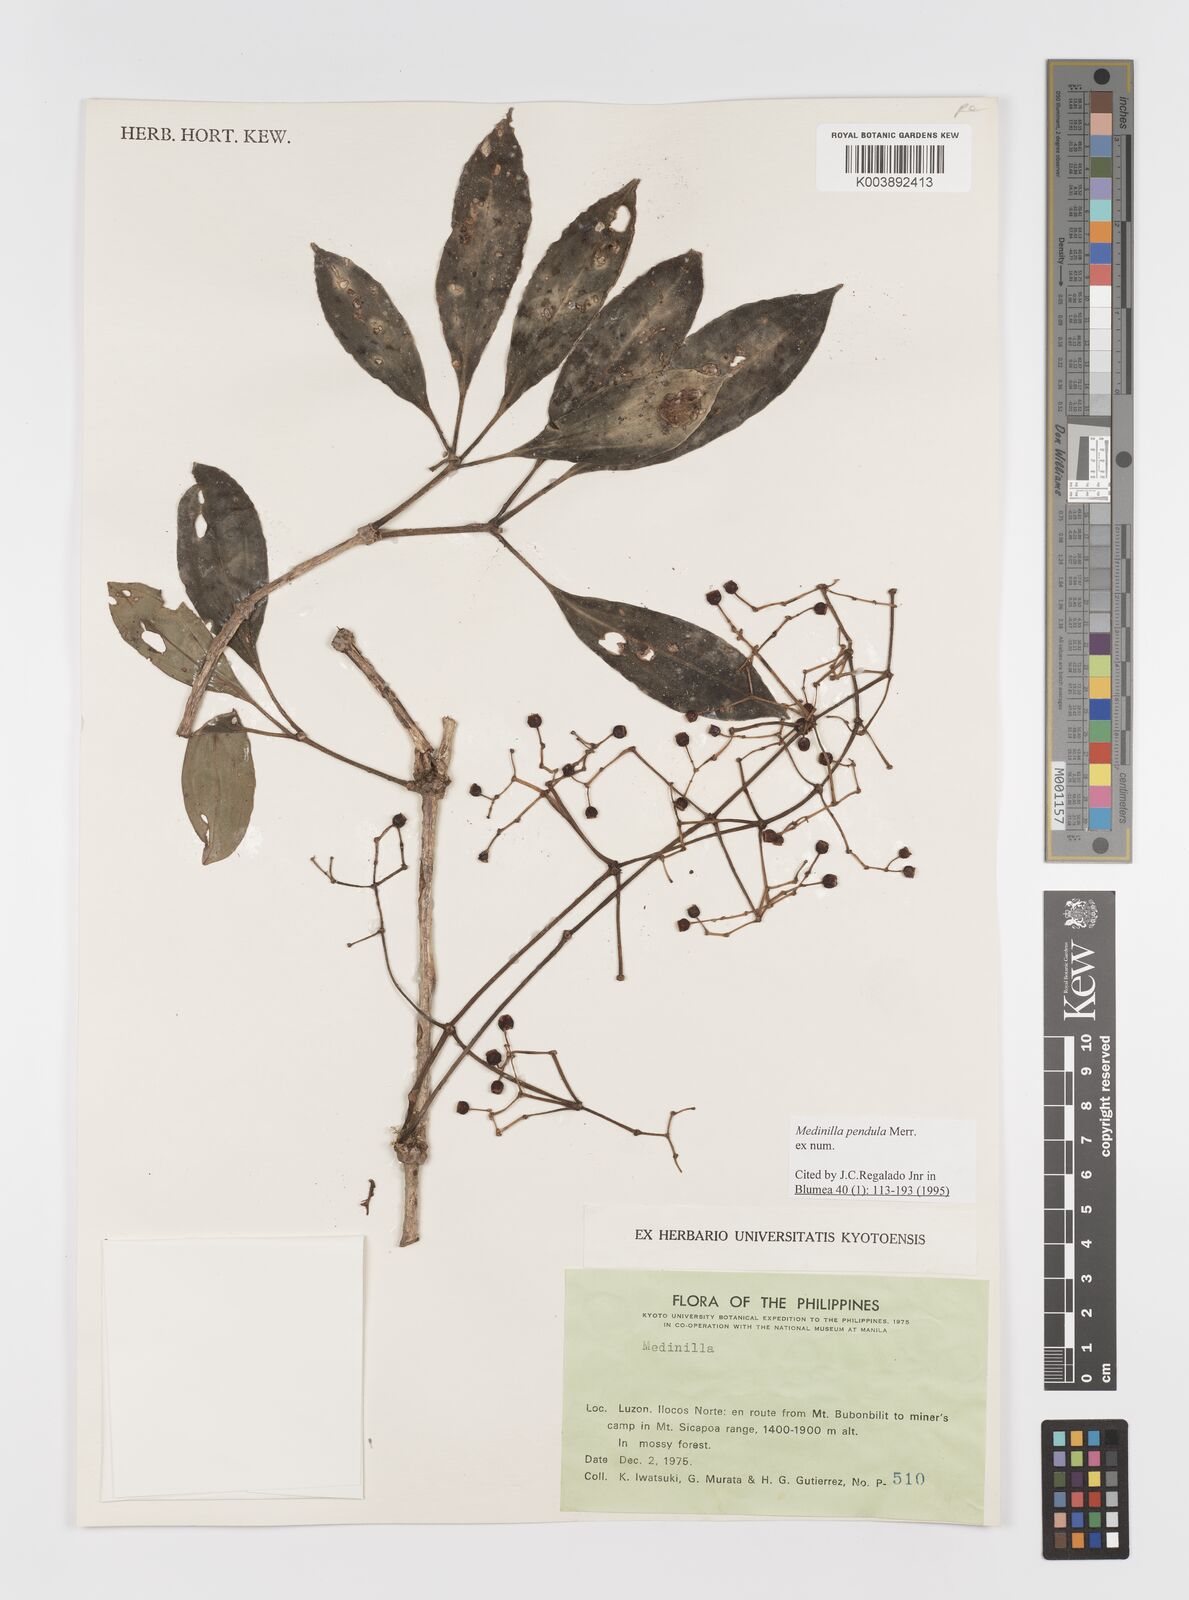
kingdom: Plantae
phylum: Tracheophyta
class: Magnoliopsida
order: Myrtales
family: Melastomataceae
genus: Medinilla
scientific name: Medinilla pendula
